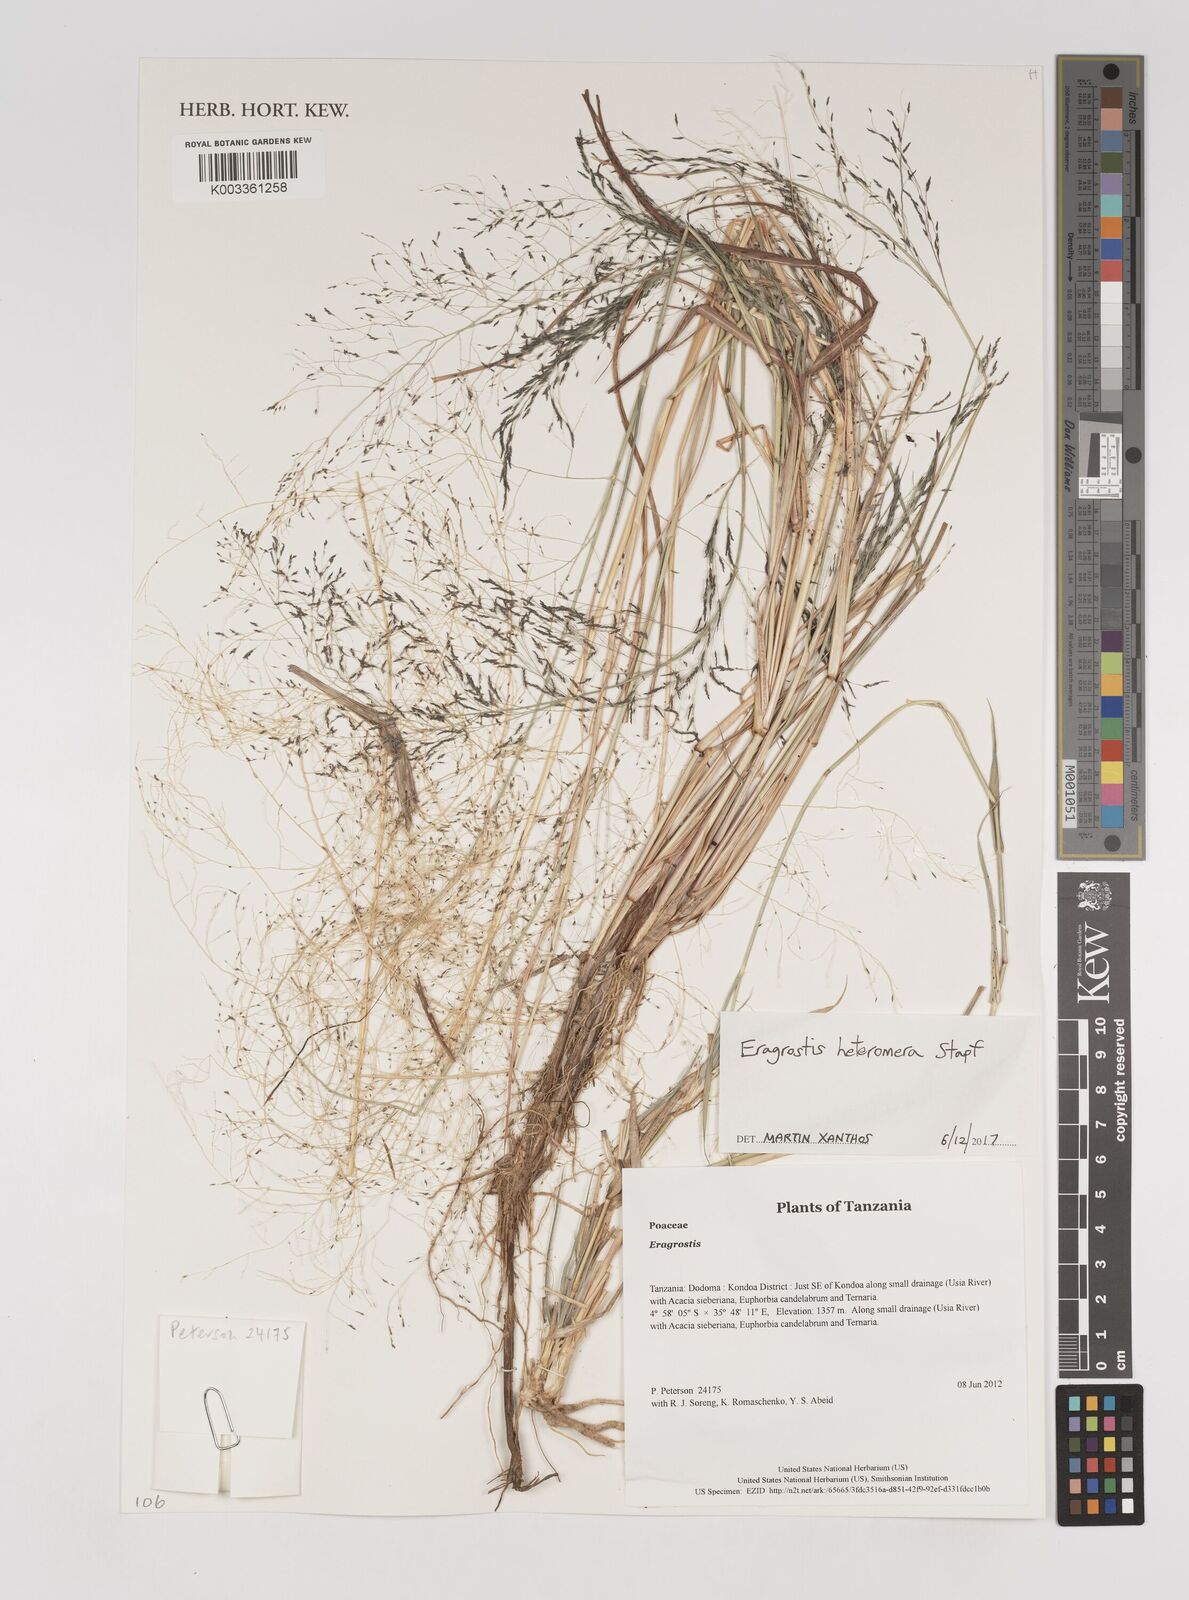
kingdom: Plantae
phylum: Tracheophyta
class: Liliopsida
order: Poales
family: Poaceae
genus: Eragrostis
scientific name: Eragrostis heteromera
